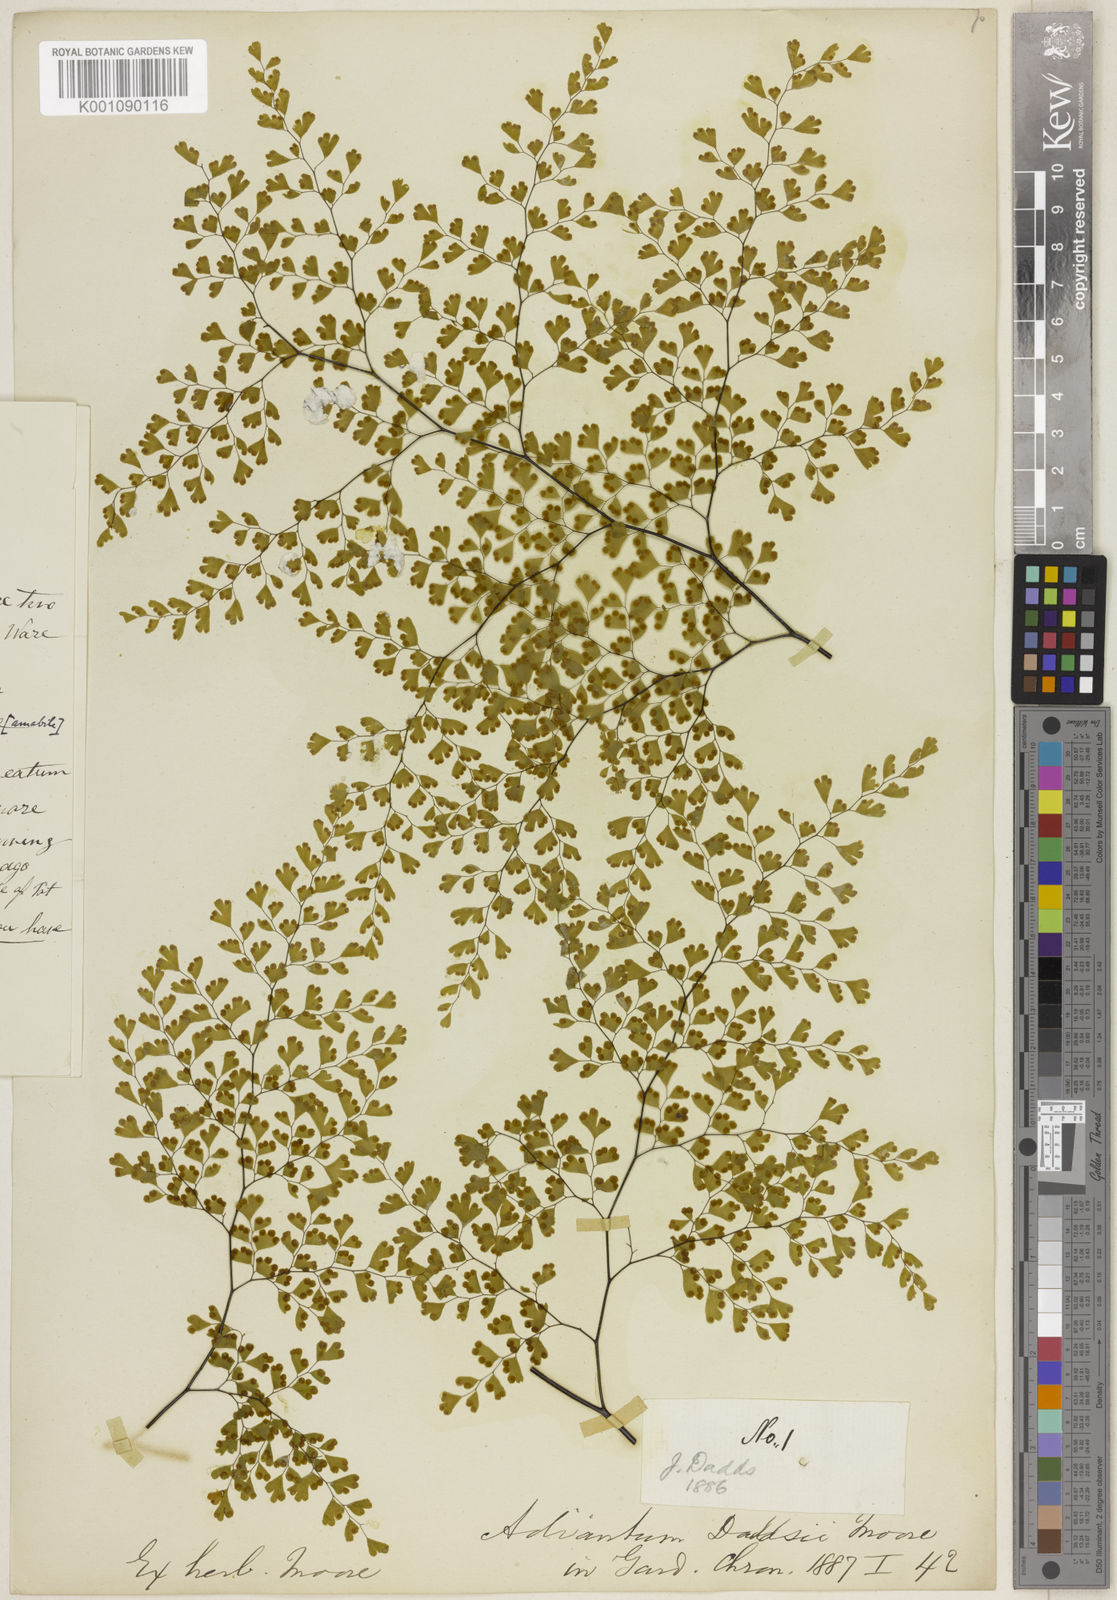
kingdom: Plantae
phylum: Tracheophyta
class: Polypodiopsida
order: Polypodiales
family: Pteridaceae
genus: Adiantum
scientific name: Adiantum raddianum
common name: Delta maidenhair fern
